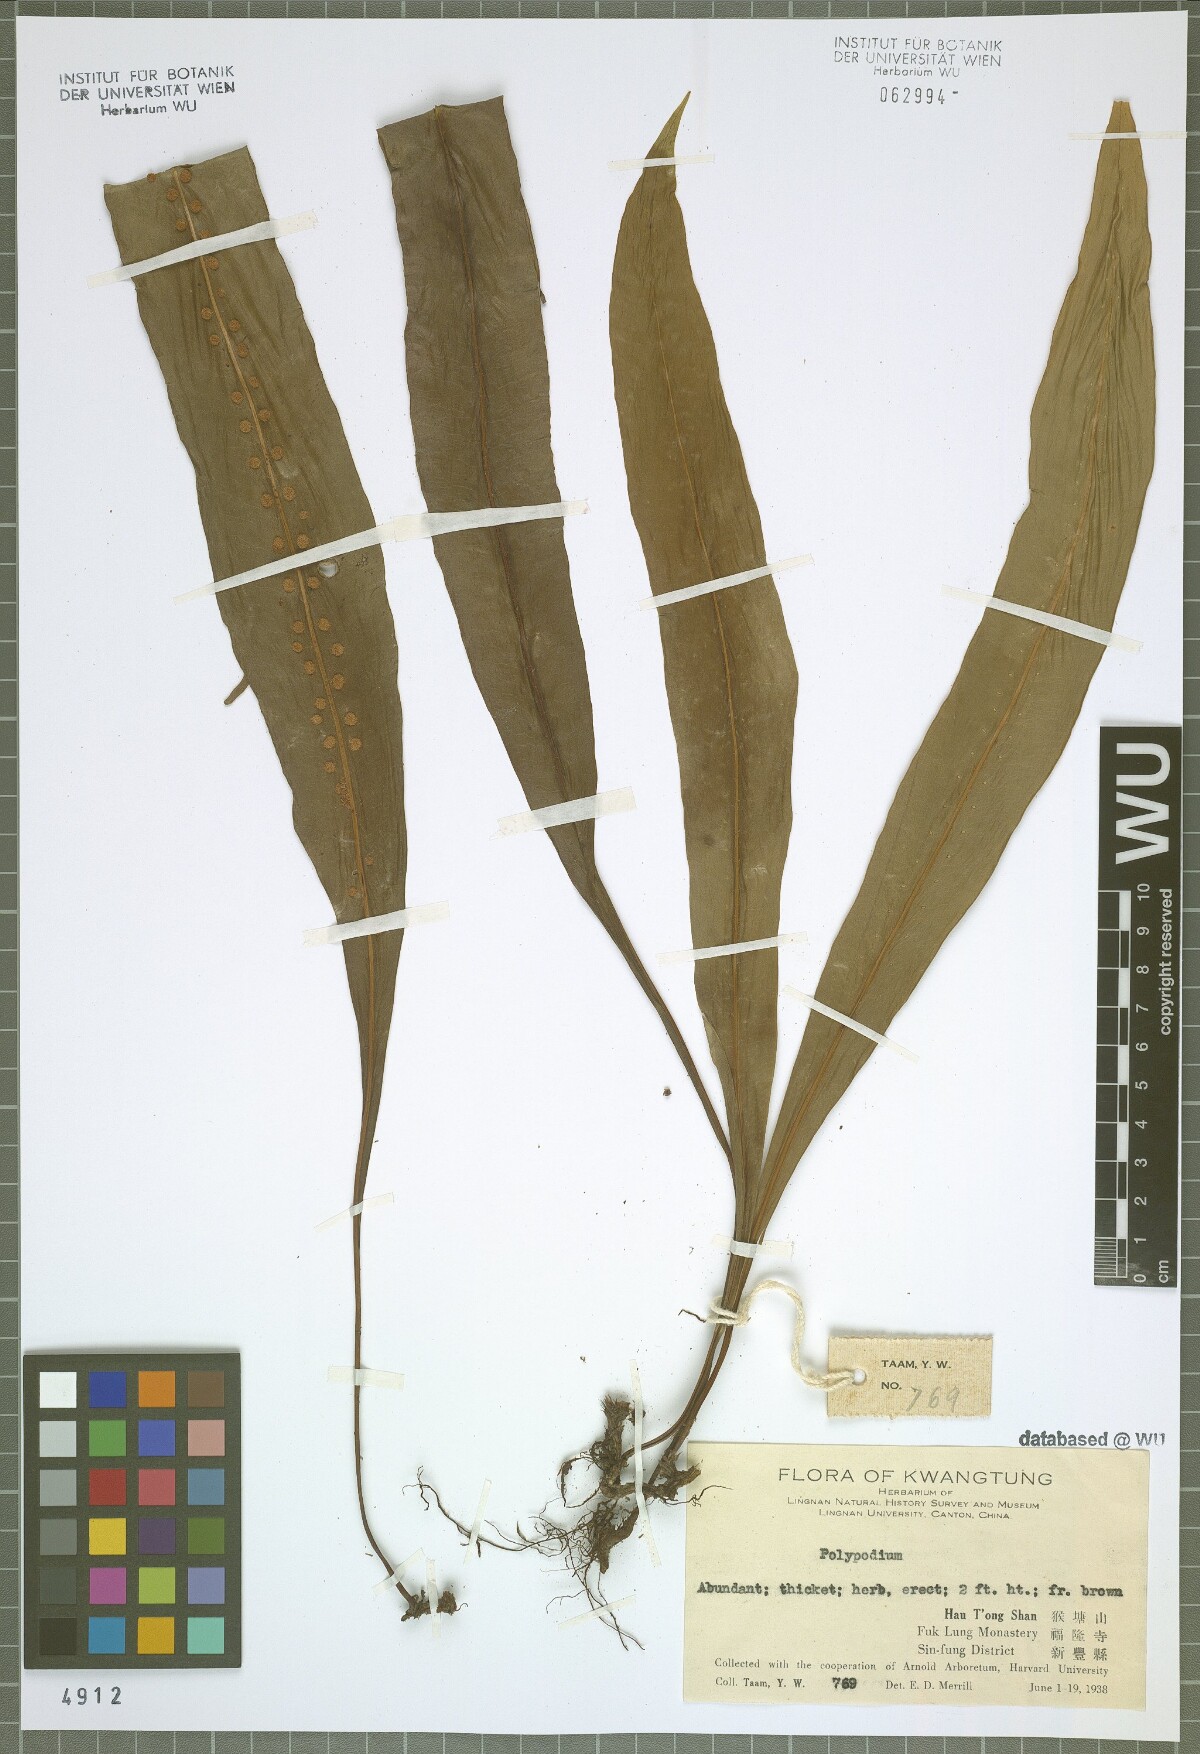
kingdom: Plantae
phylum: Tracheophyta
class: Polypodiopsida
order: Polypodiales
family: Polypodiaceae
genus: Polypodium
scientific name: Polypodium
